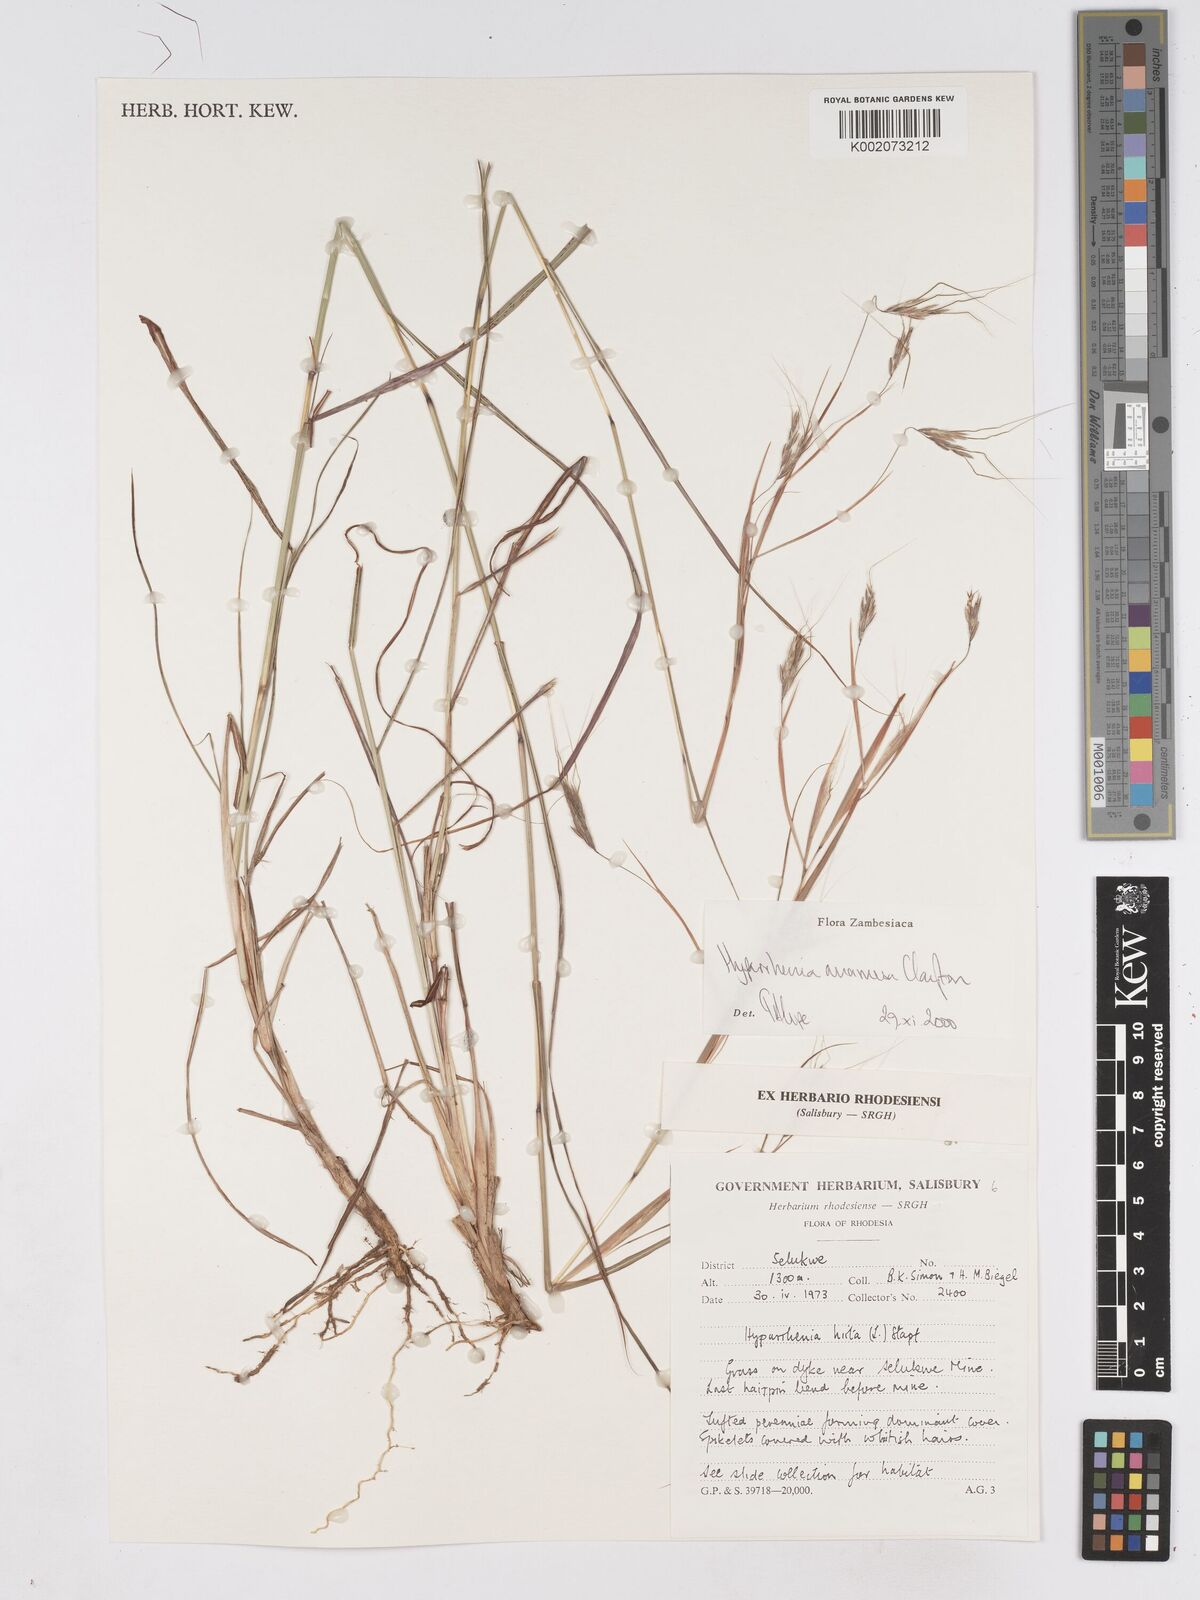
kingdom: Plantae
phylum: Tracheophyta
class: Liliopsida
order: Poales
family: Poaceae
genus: Hyparrhenia
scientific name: Hyparrhenia anamesa
